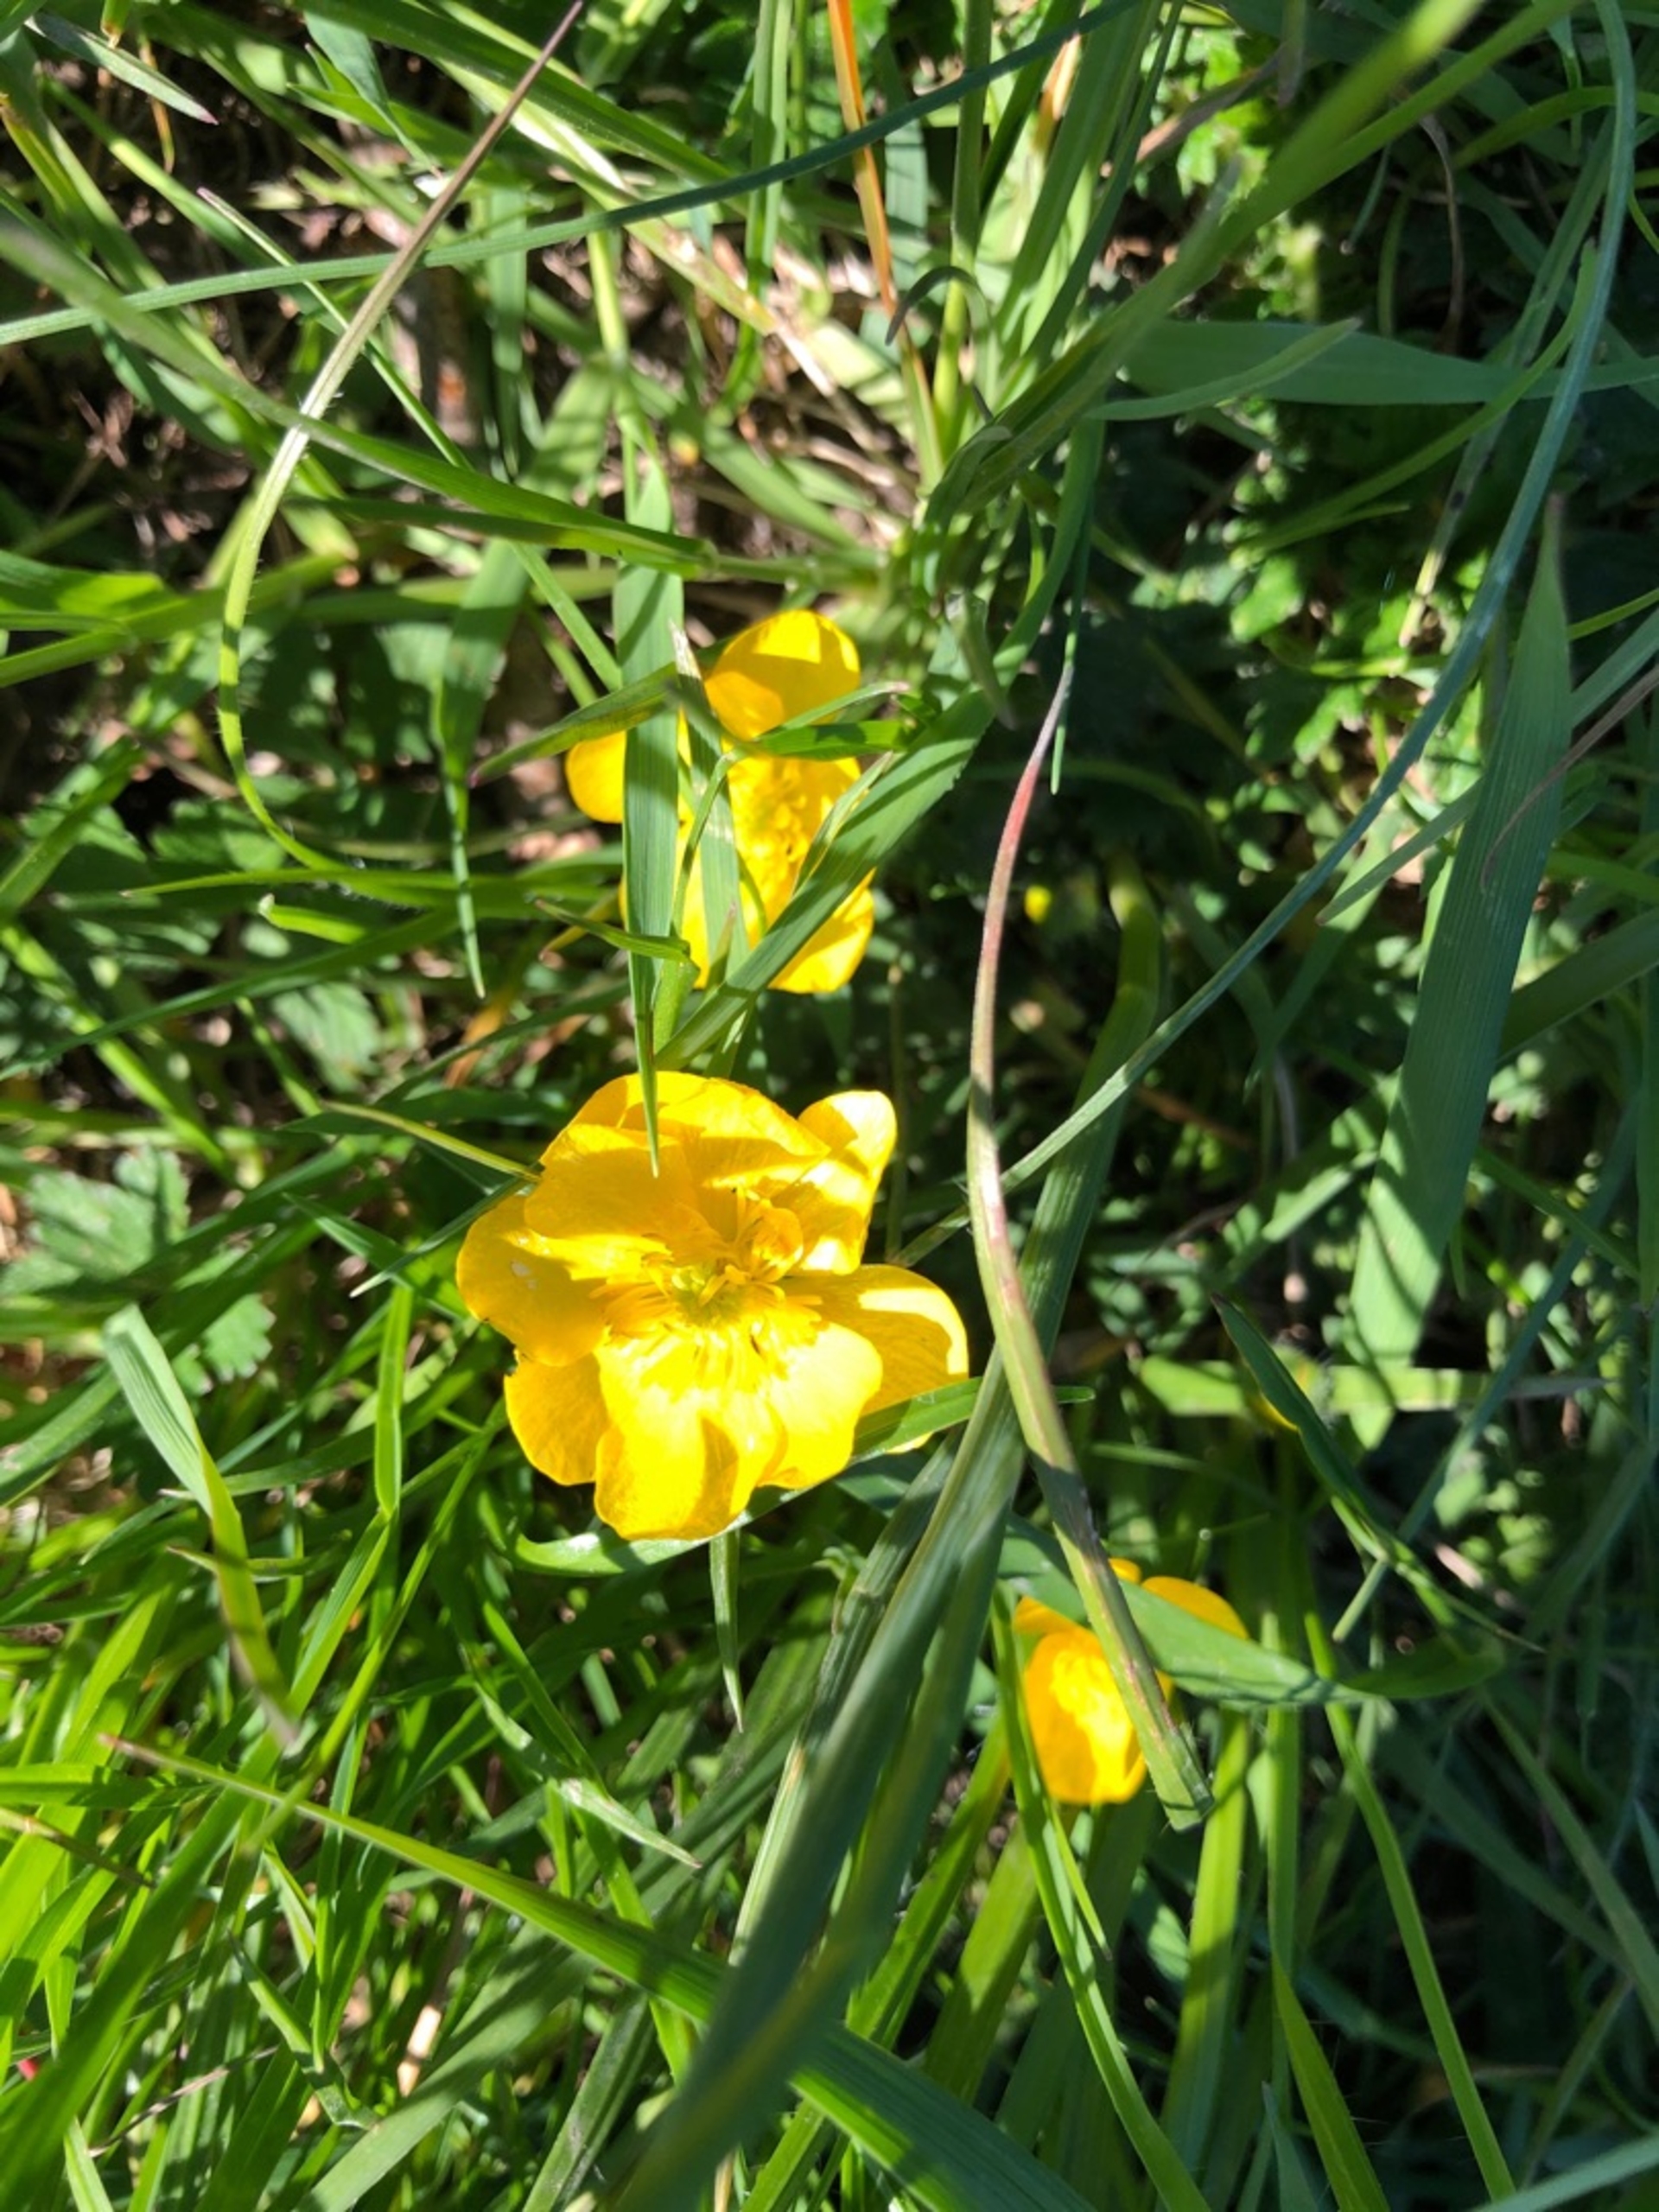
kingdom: Plantae
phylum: Tracheophyta
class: Magnoliopsida
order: Ranunculales
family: Ranunculaceae
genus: Ranunculus
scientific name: Ranunculus
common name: Ranunkelslægten
